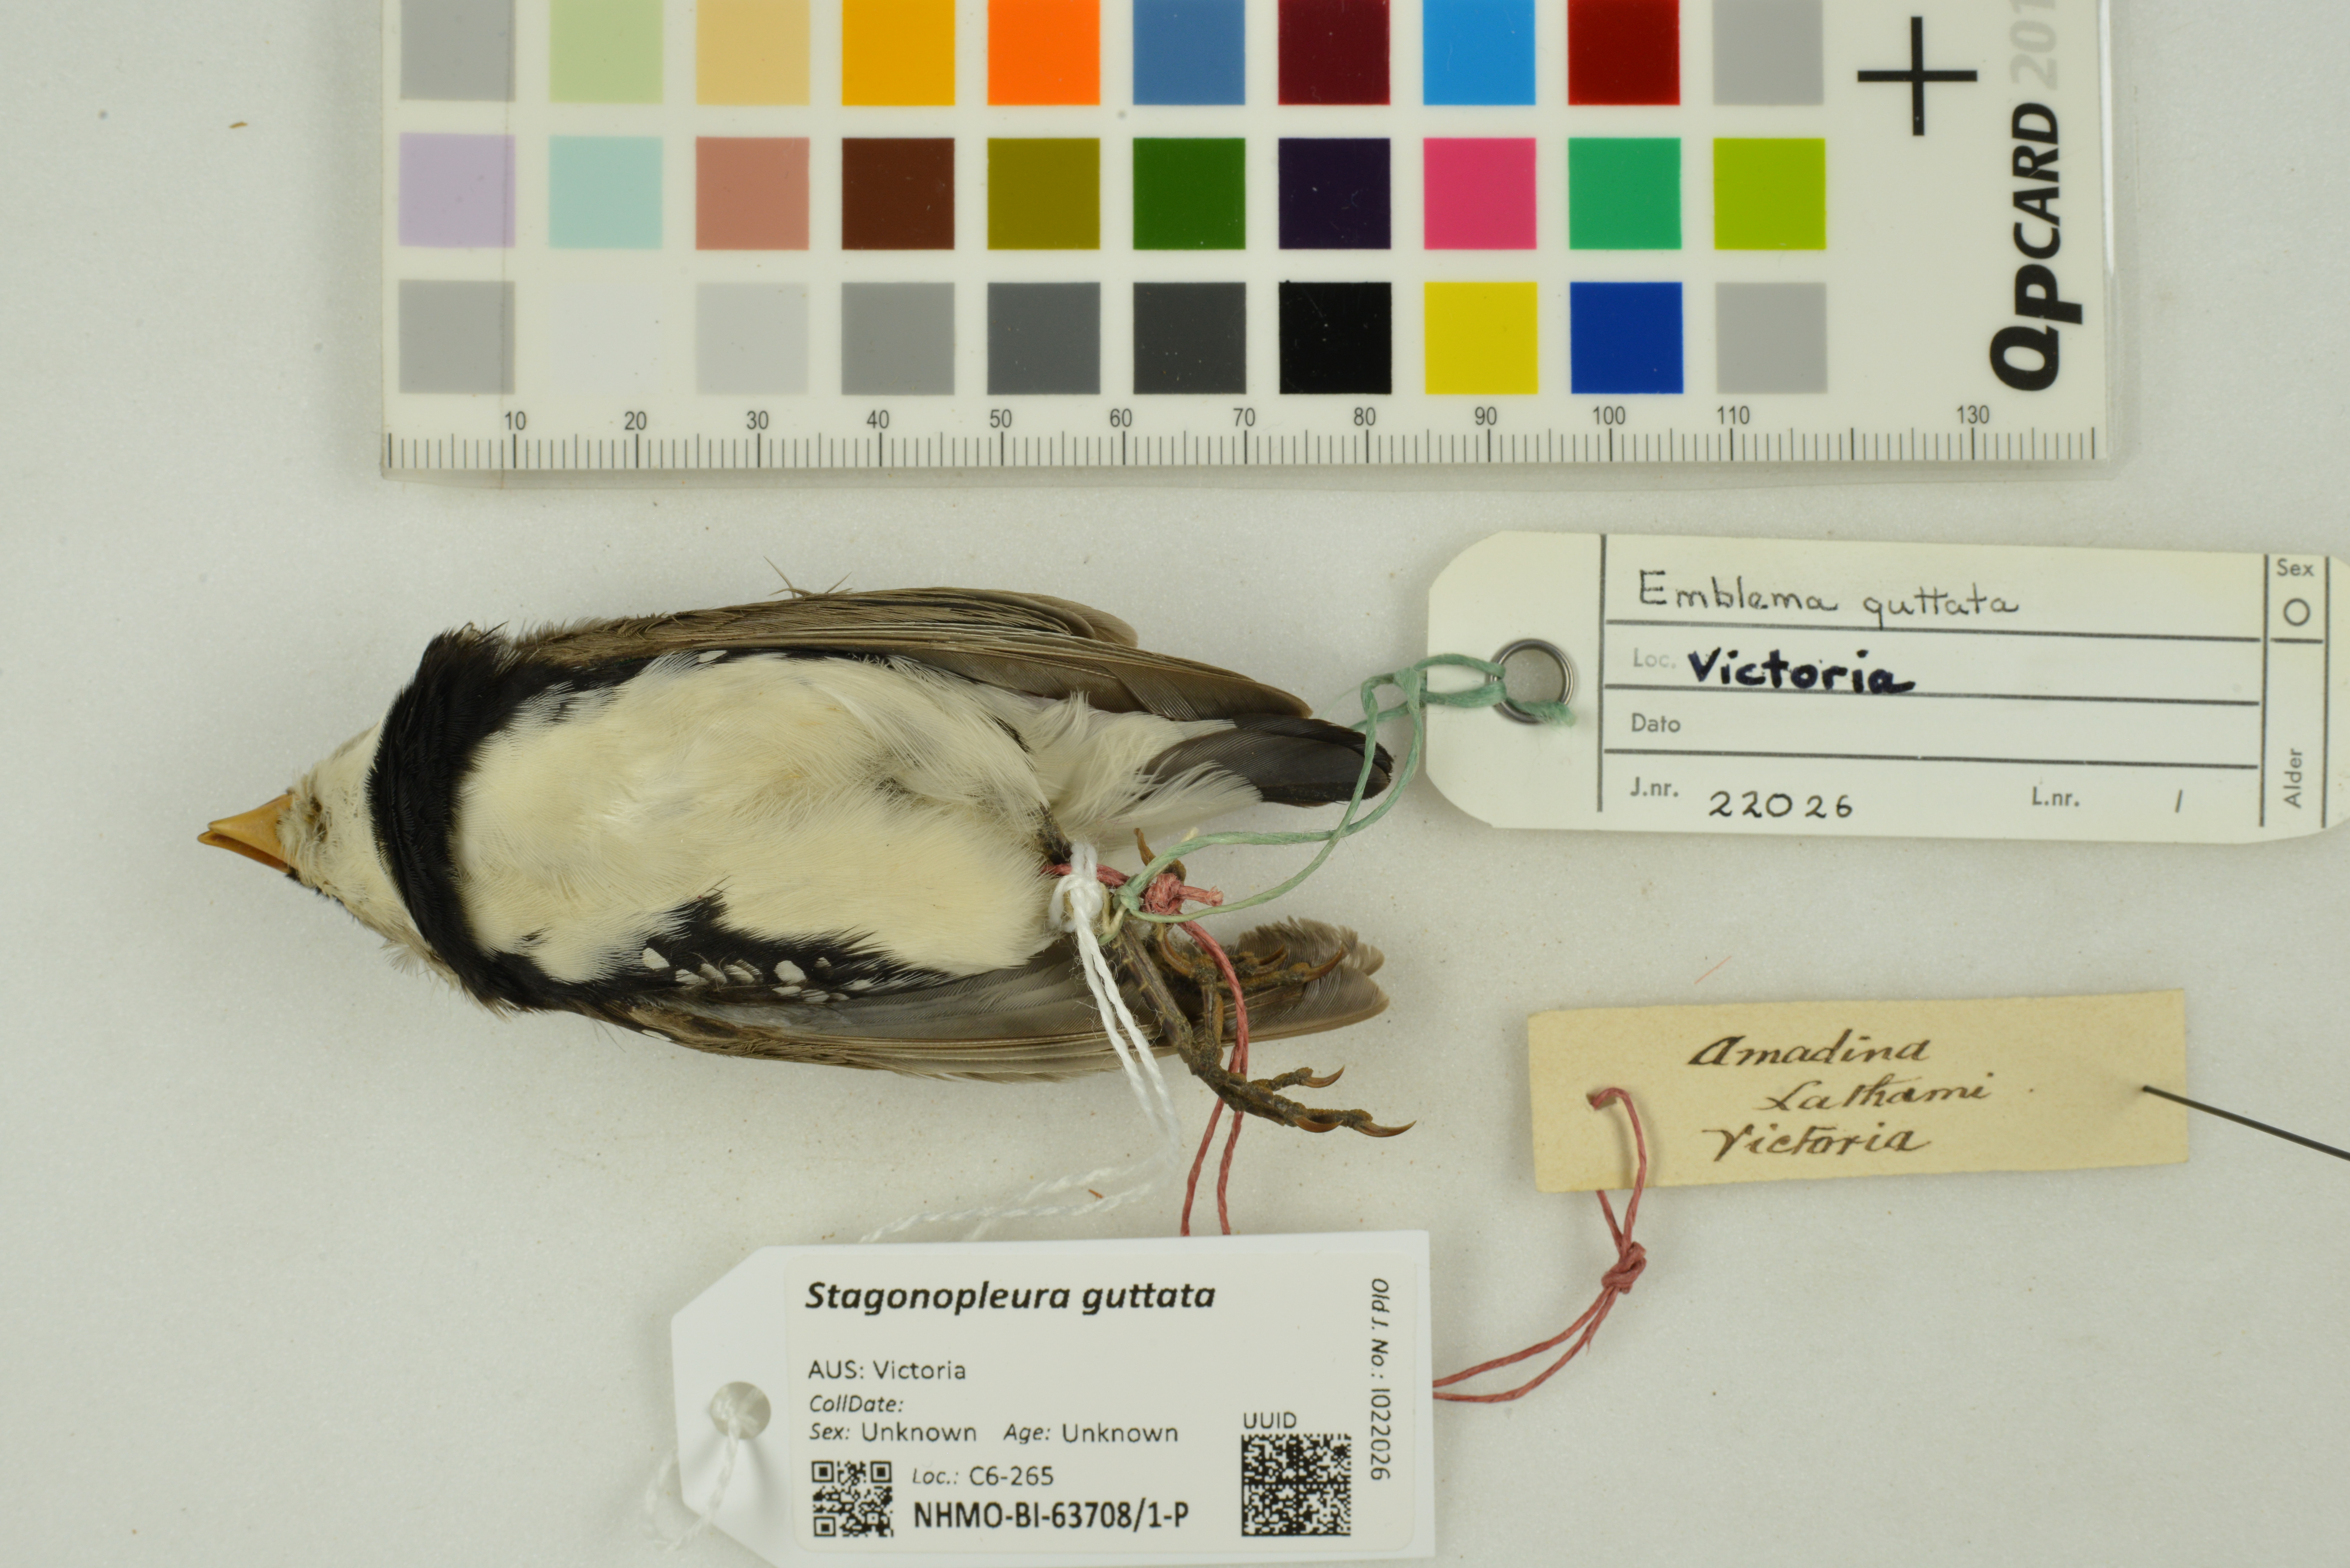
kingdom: Animalia
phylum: Chordata
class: Aves
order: Passeriformes
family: Estrildidae
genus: Stagonopleura
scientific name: Stagonopleura guttata
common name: Diamond firetail
